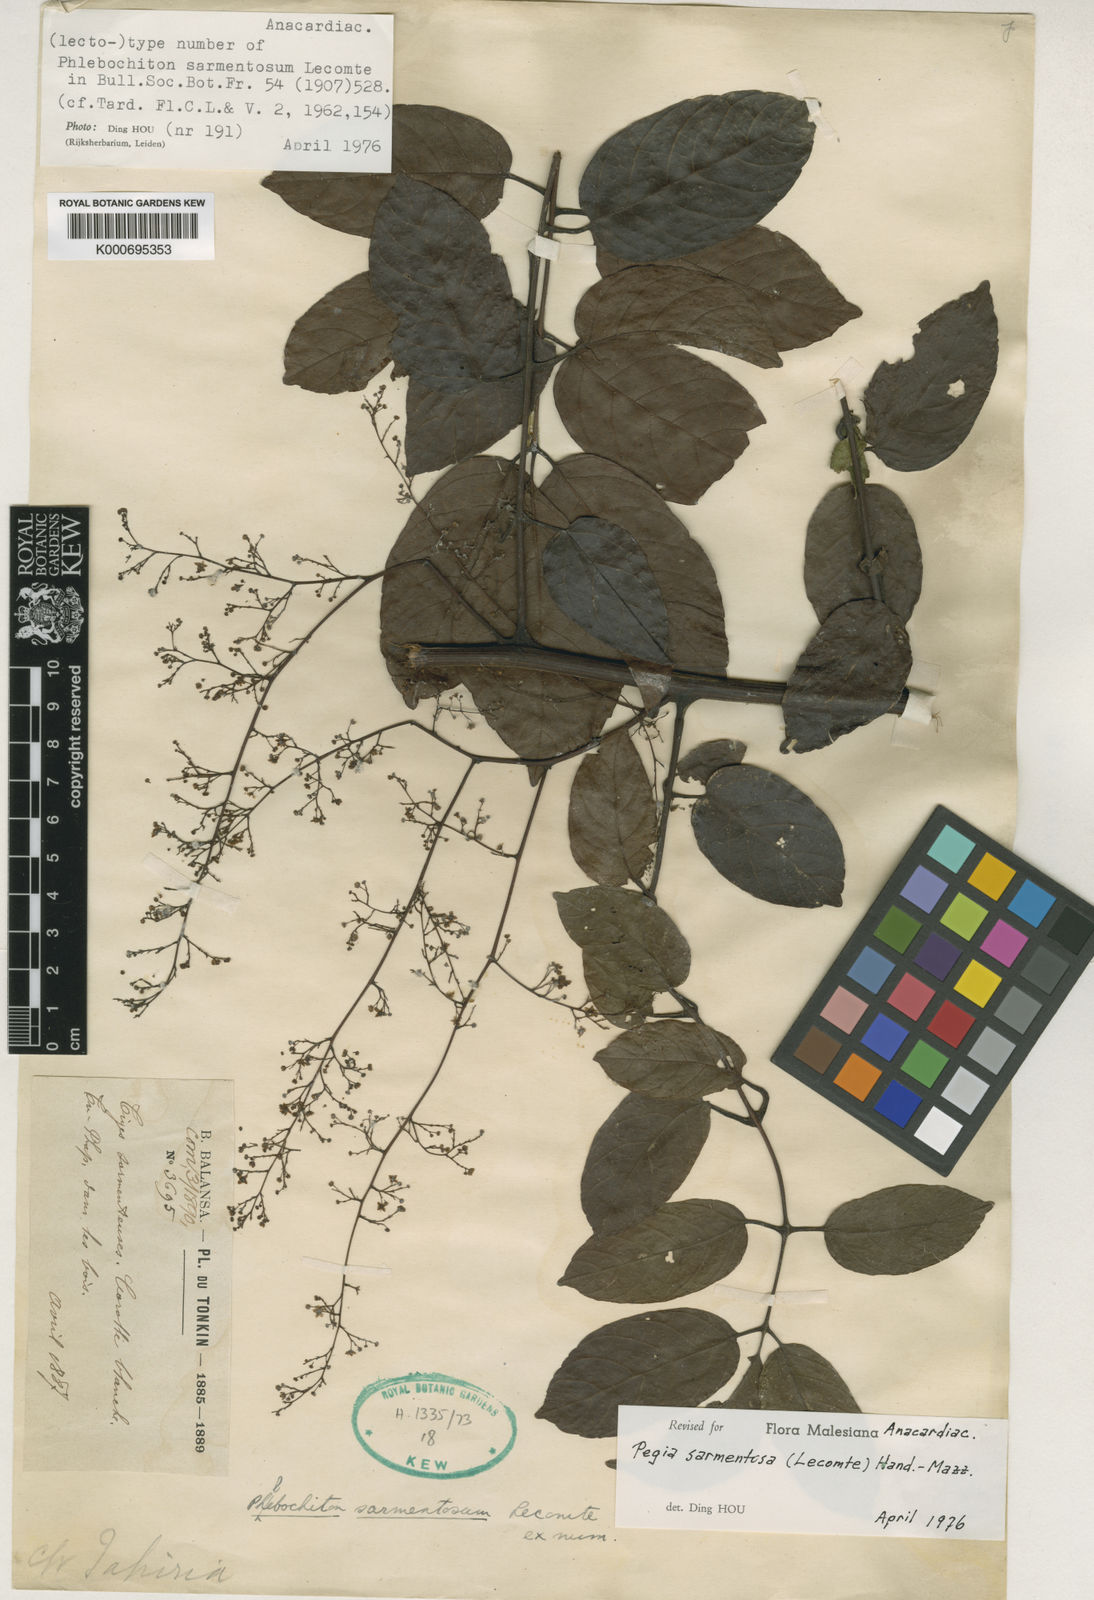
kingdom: Plantae
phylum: Tracheophyta
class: Magnoliopsida
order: Sapindales
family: Anacardiaceae
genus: Pegia
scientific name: Pegia sarmentosa
